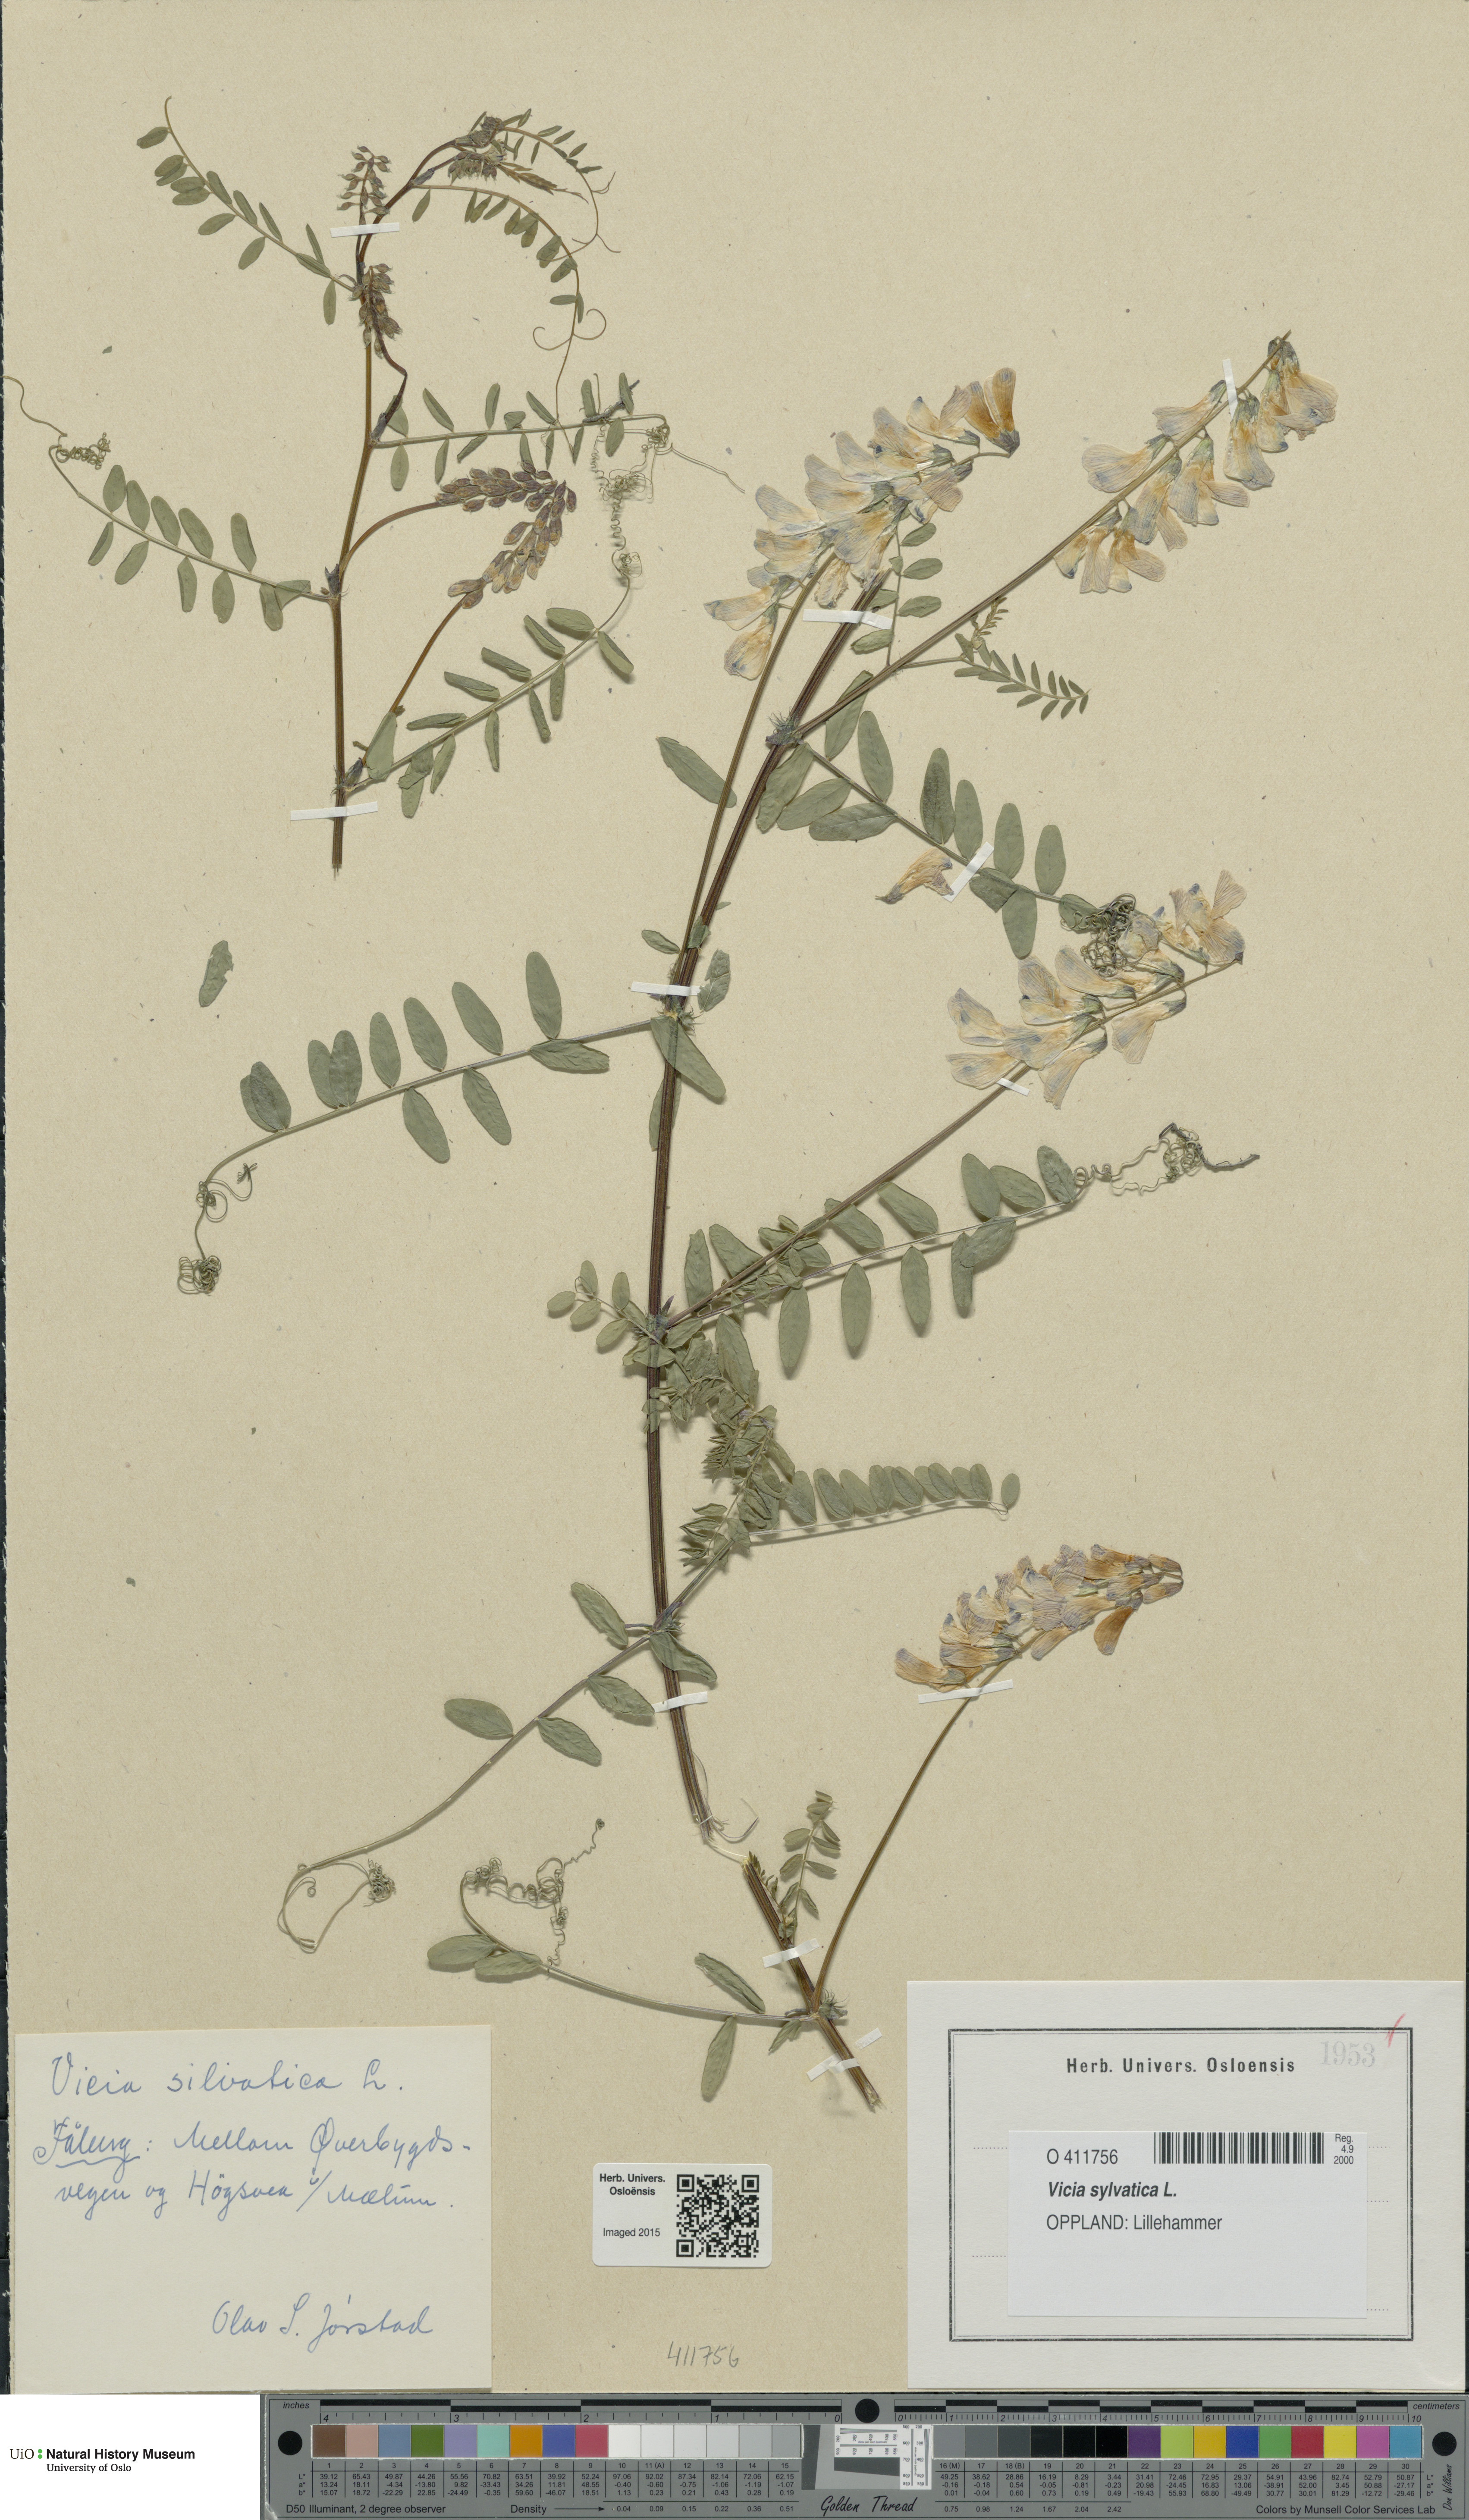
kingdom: Plantae
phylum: Tracheophyta
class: Magnoliopsida
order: Fabales
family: Fabaceae
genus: Vicia
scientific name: Vicia sylvatica
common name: Wood vetch
